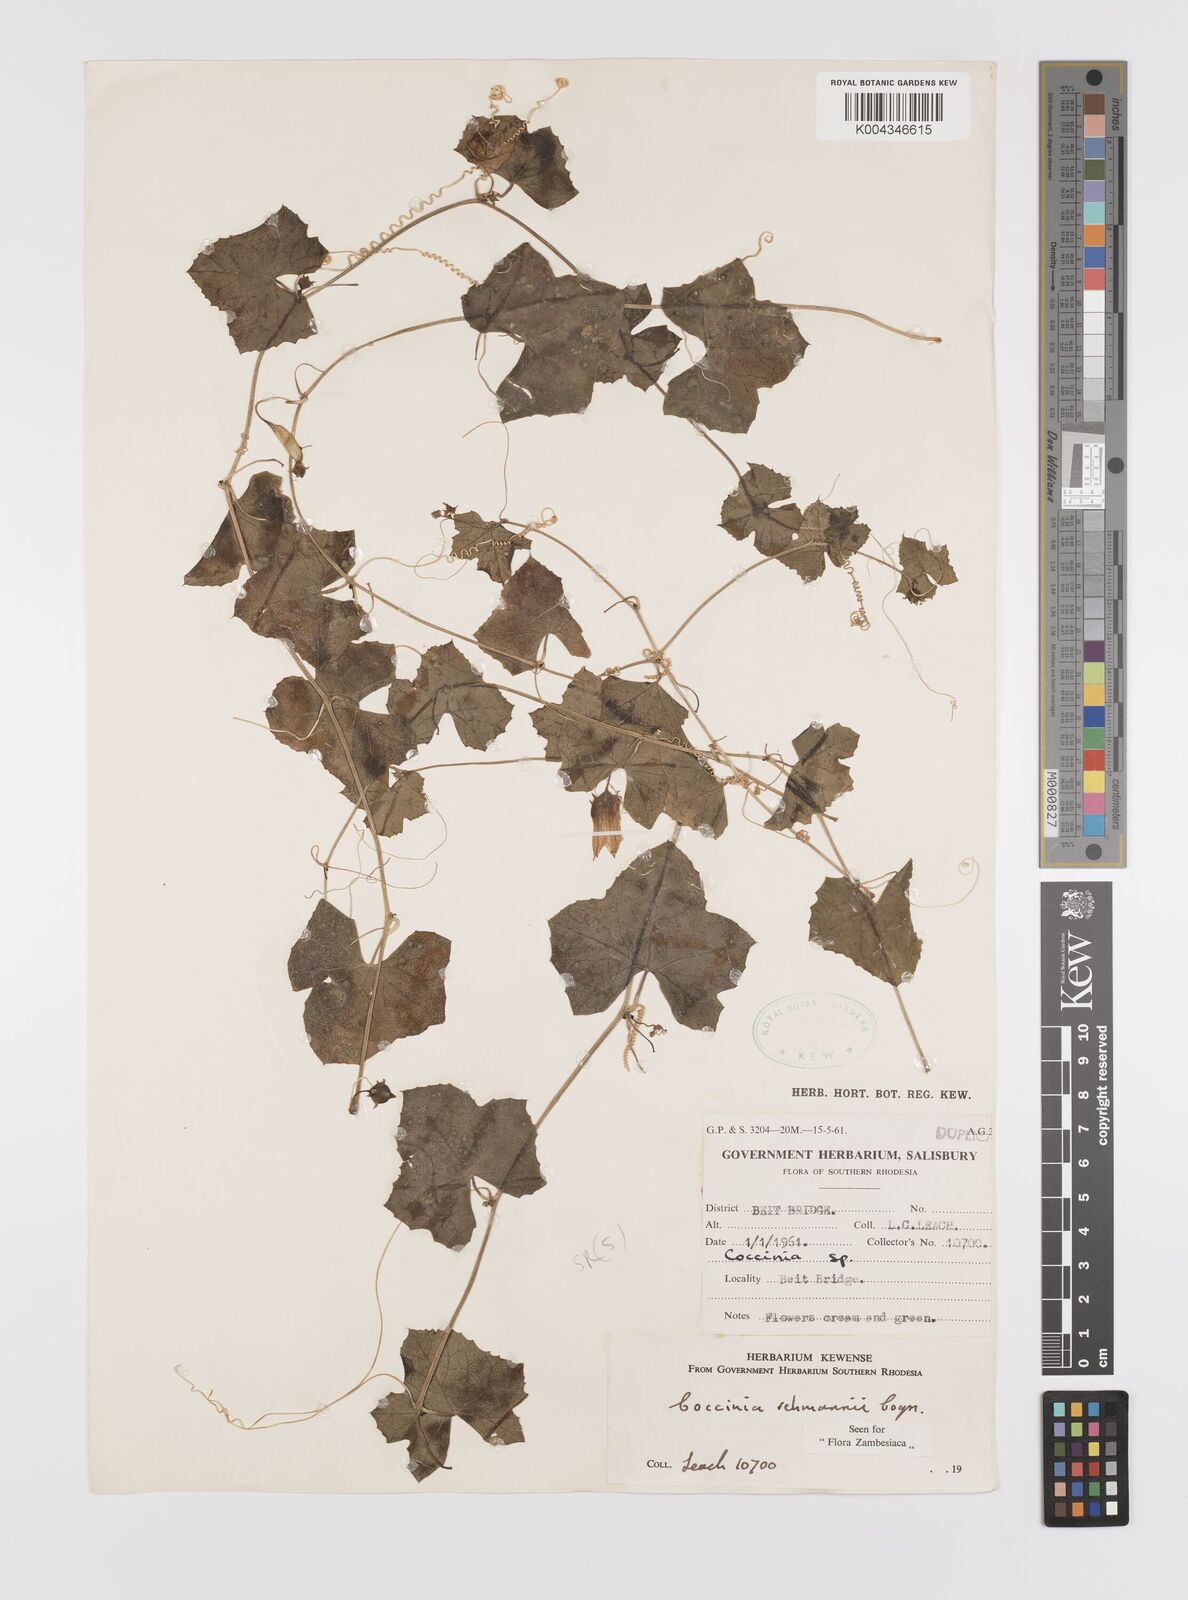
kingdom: Plantae
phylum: Tracheophyta
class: Magnoliopsida
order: Cucurbitales
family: Cucurbitaceae
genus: Coccinia
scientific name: Coccinia rehmannii
